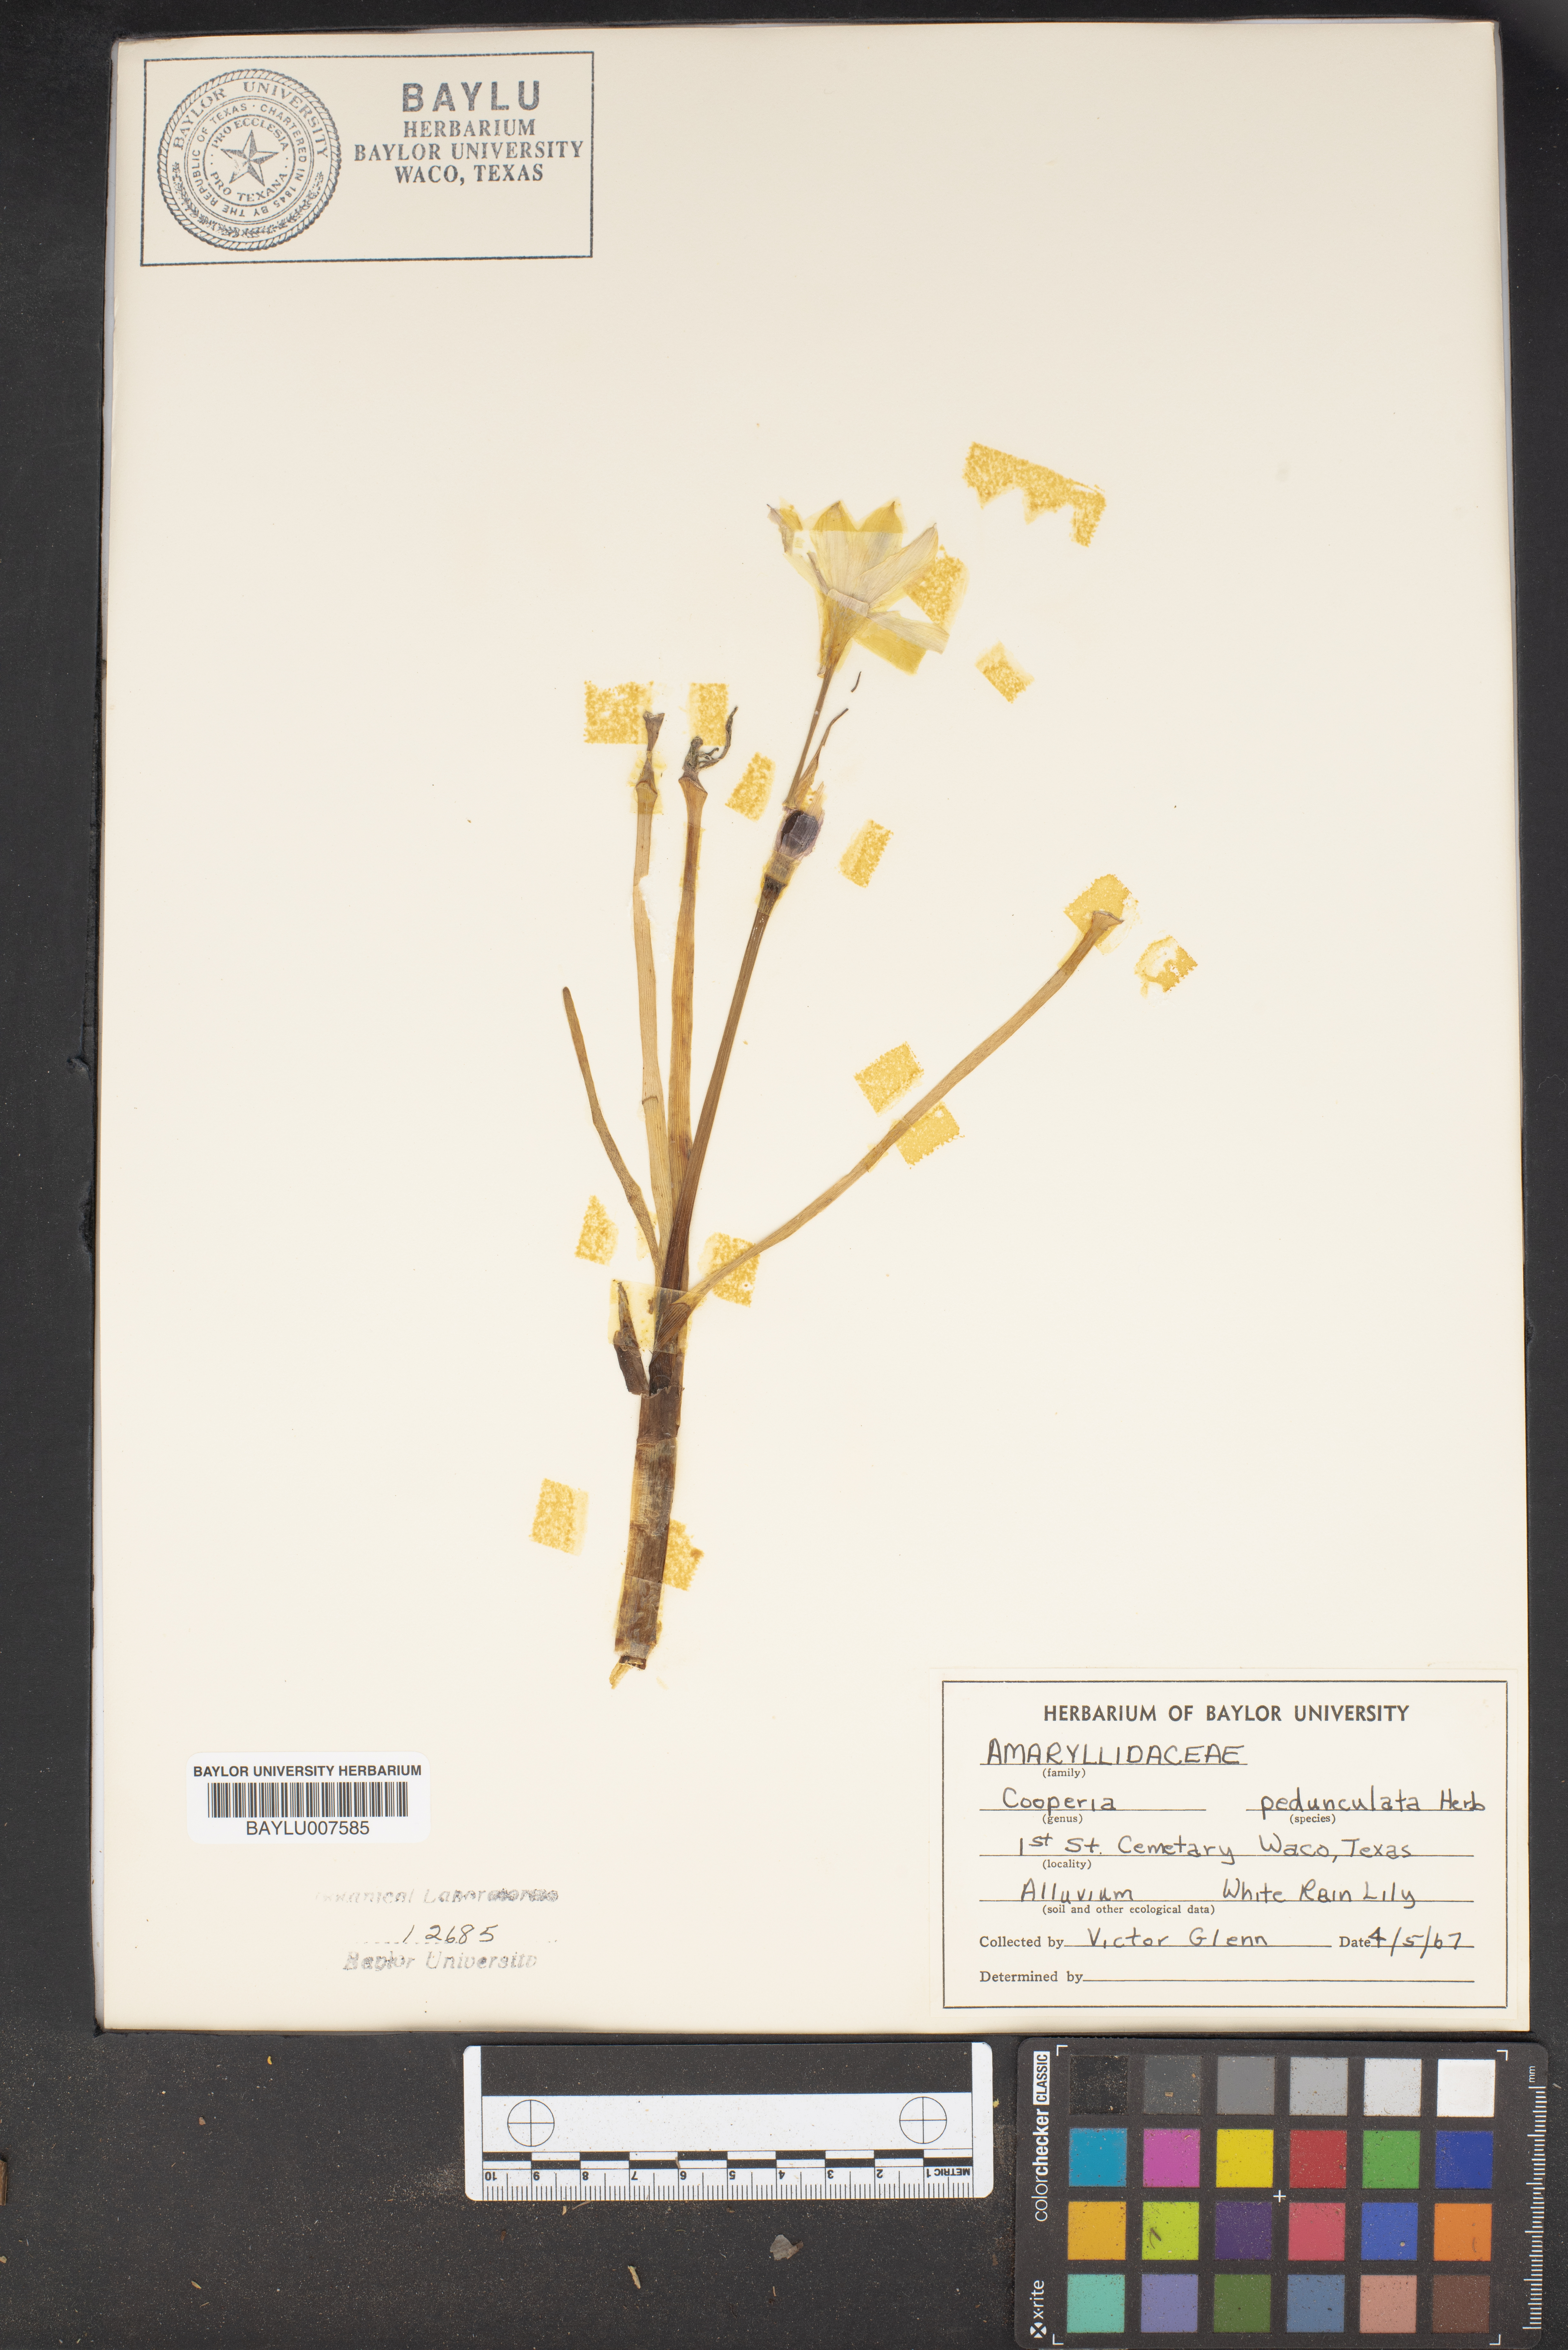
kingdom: Plantae
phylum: Tracheophyta
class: Liliopsida
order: Asparagales
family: Amaryllidaceae
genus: Zephyranthes
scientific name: Zephyranthes drummondii
